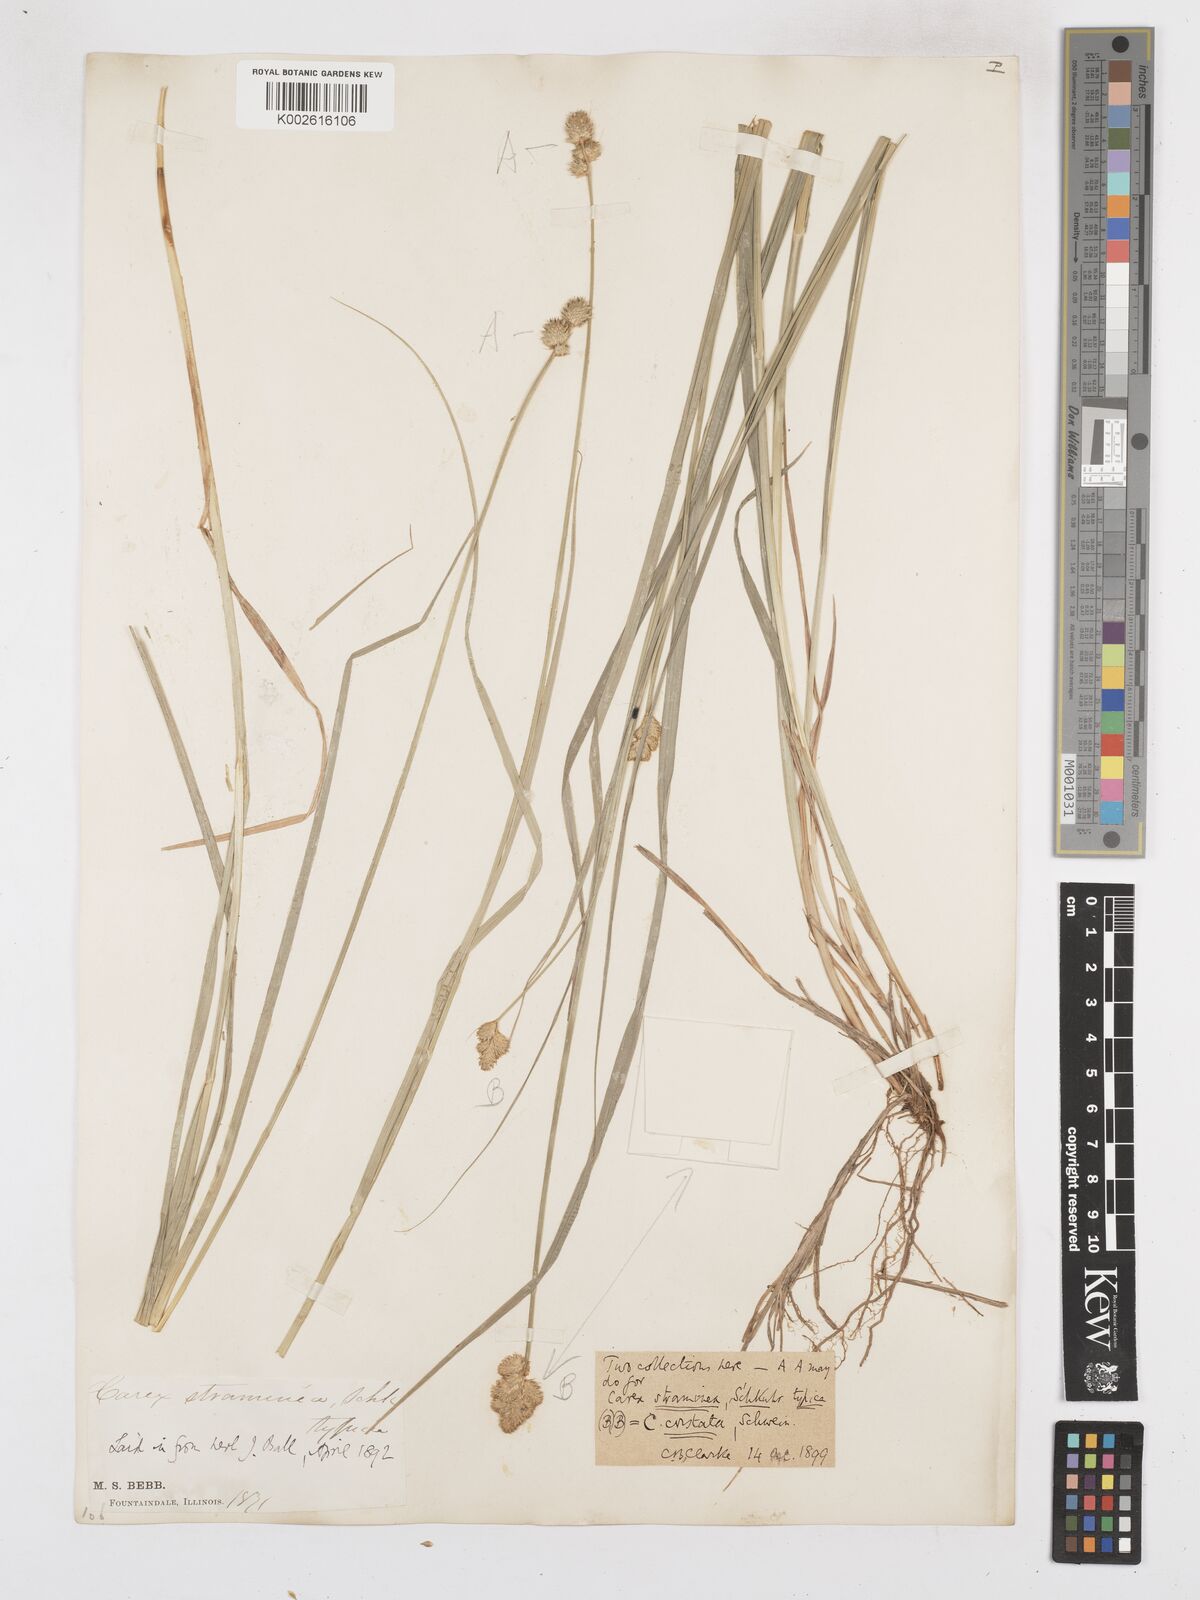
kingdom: Plantae
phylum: Tracheophyta
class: Liliopsida
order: Poales
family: Cyperaceae
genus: Carex
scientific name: Carex brevior
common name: Brevior sedge
